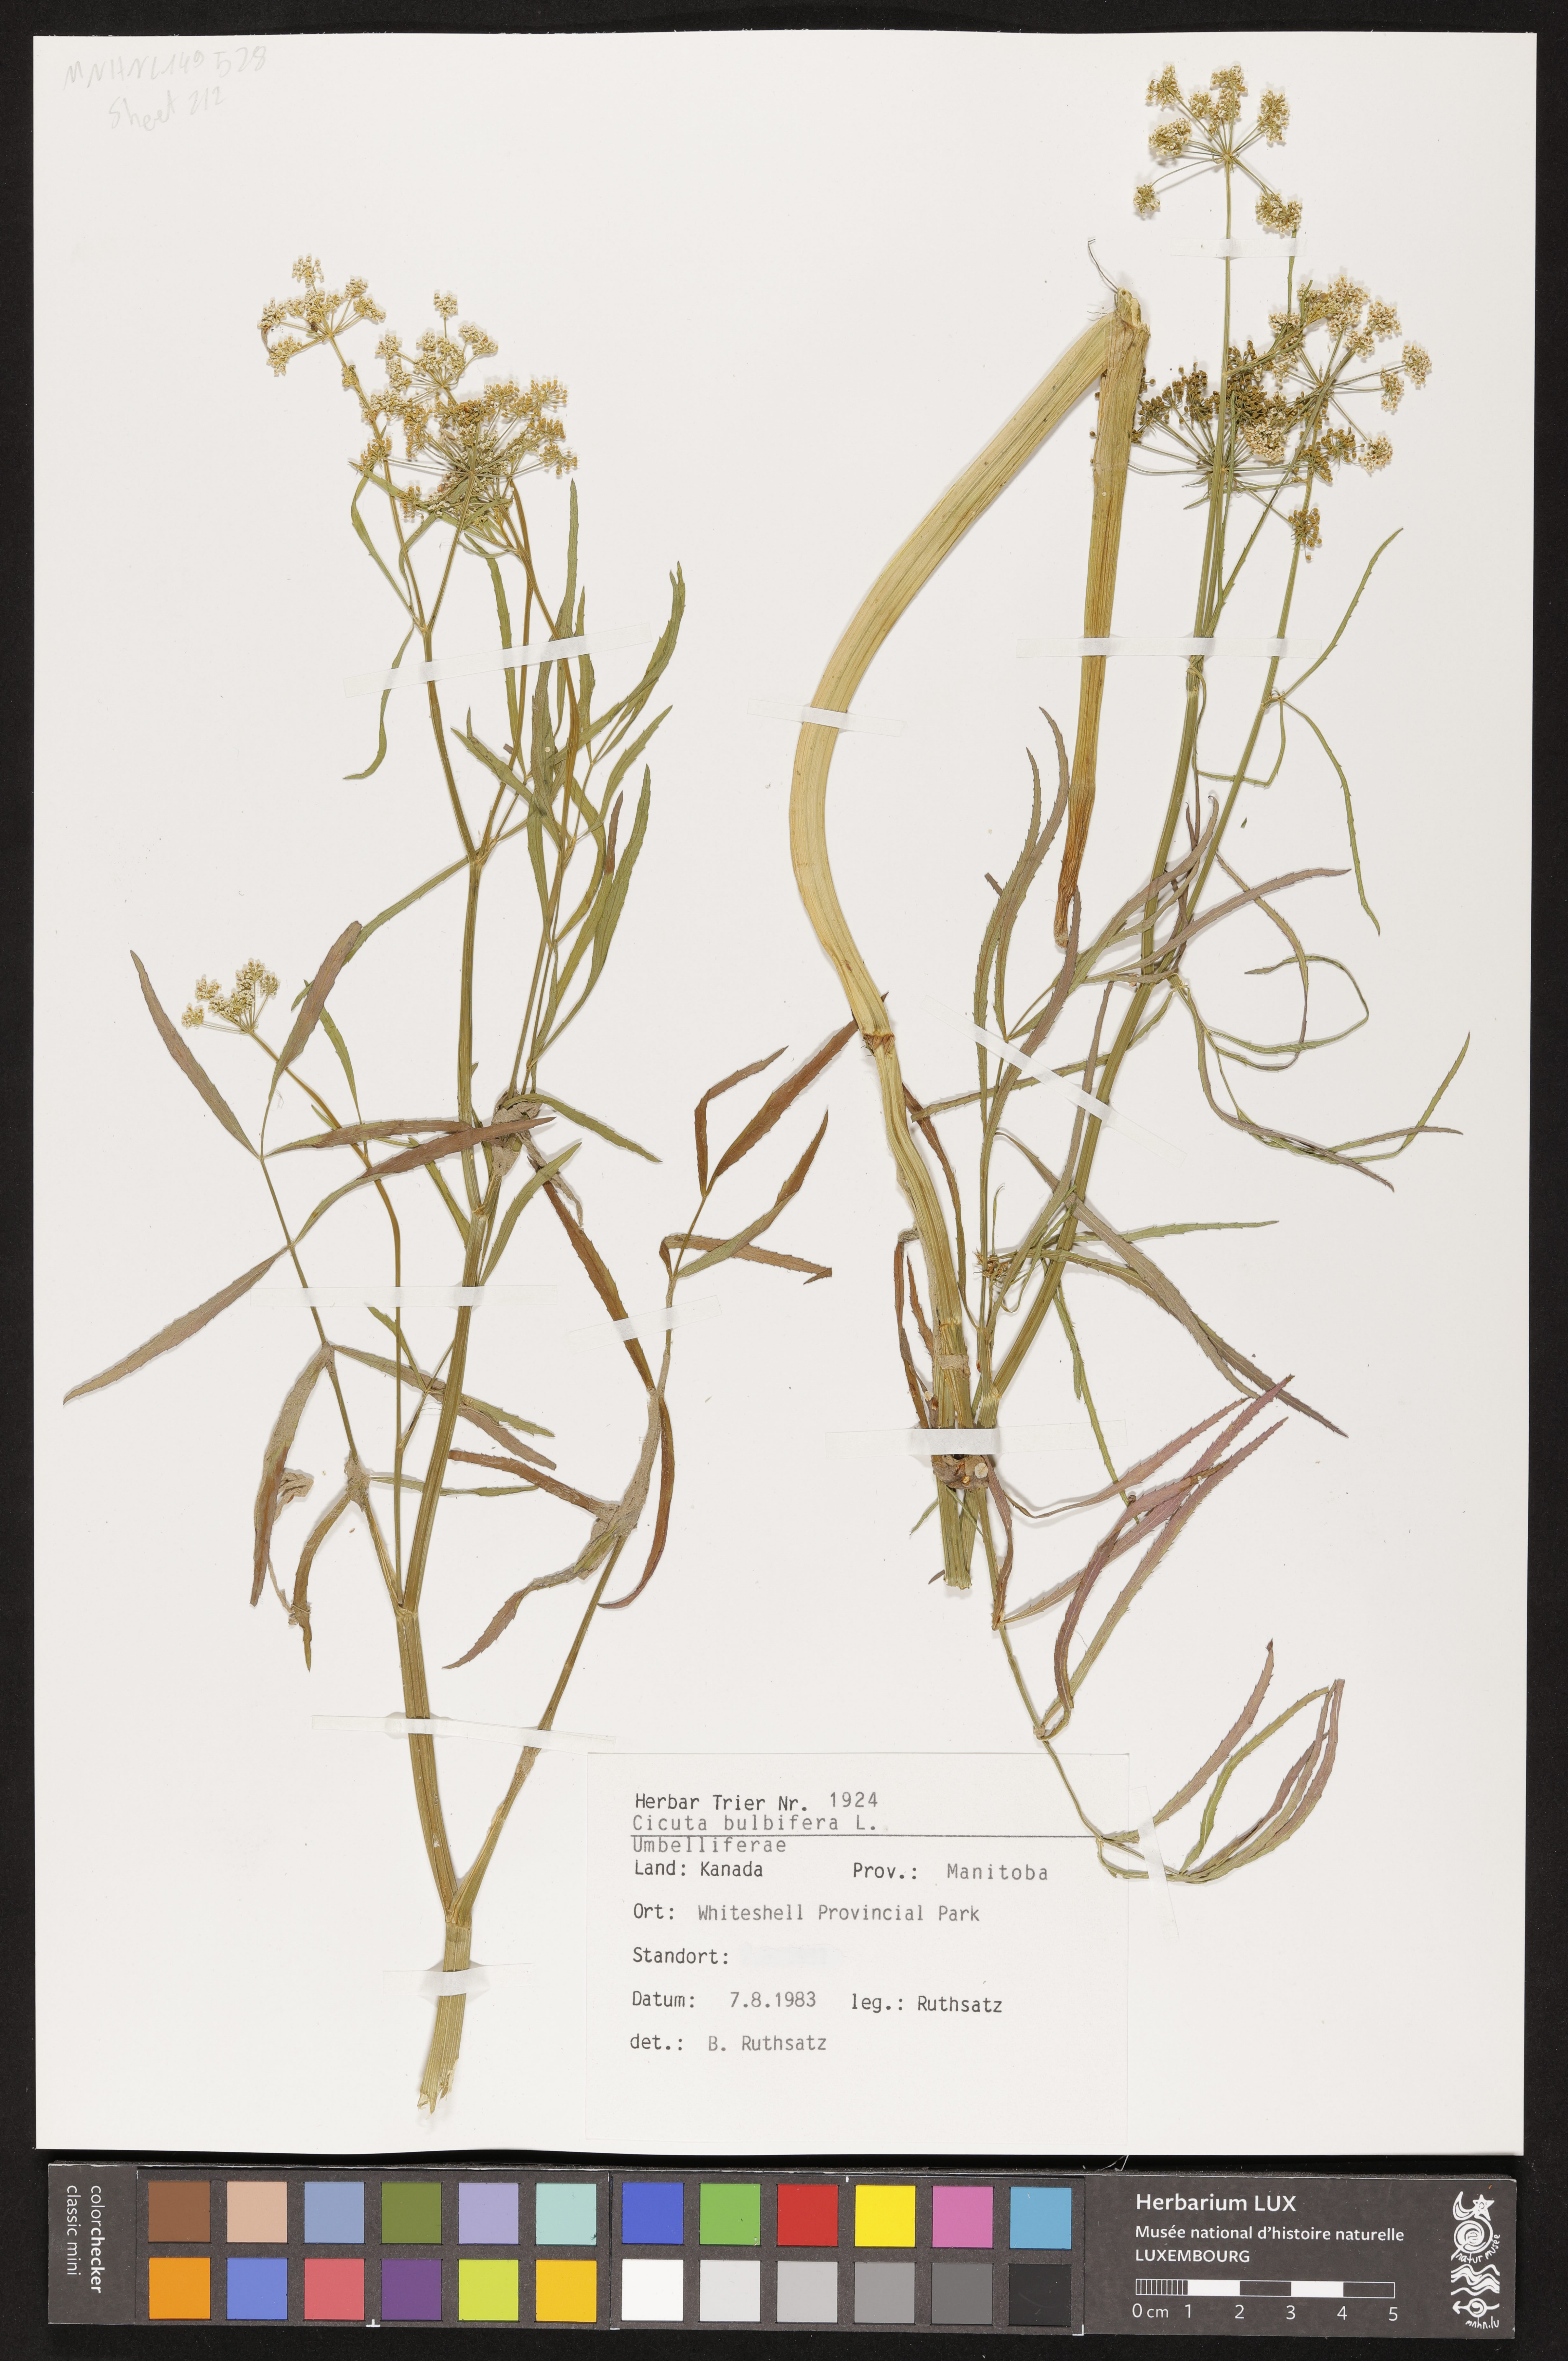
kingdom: Plantae
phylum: Tracheophyta
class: Magnoliopsida
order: Apiales
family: Apiaceae
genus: Cicuta
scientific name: Cicuta bulbifera
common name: Bulb-bearing water-hemlock
